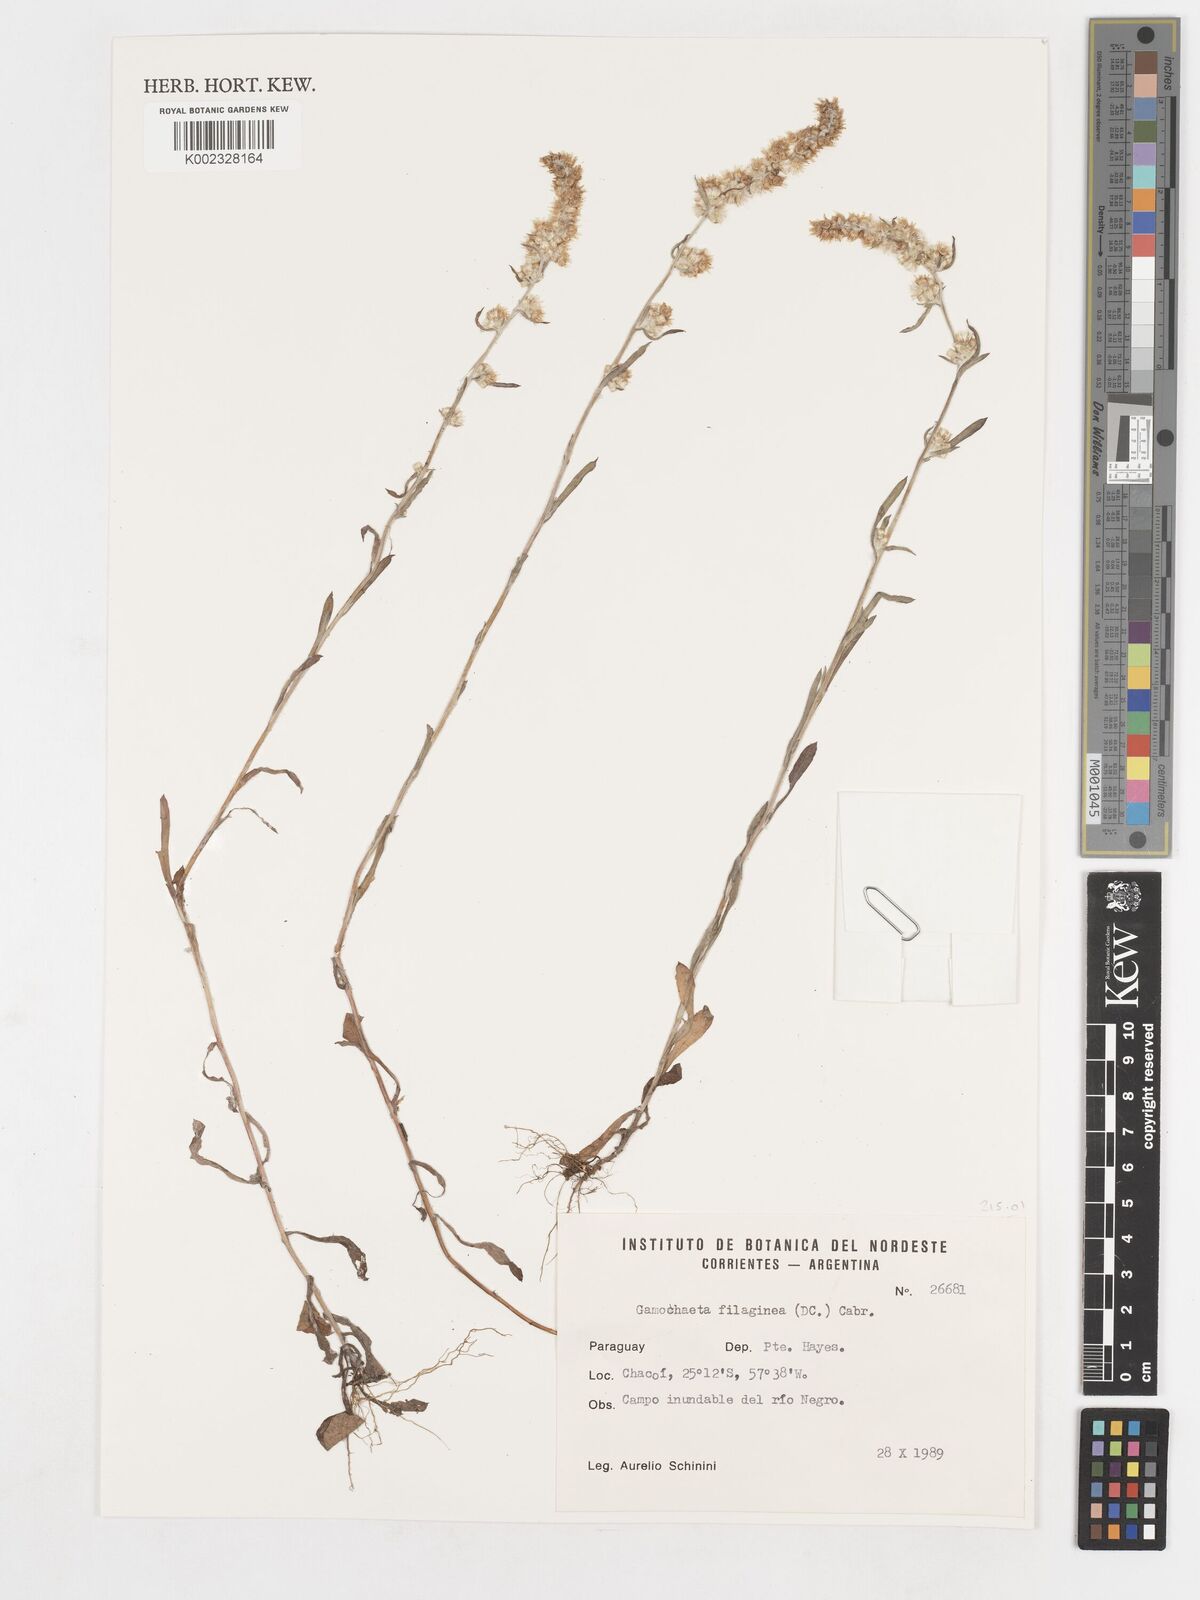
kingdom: Plantae
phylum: Tracheophyta
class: Magnoliopsida
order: Asterales
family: Asteraceae
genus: Gamochaeta
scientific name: Gamochaeta filaginea
